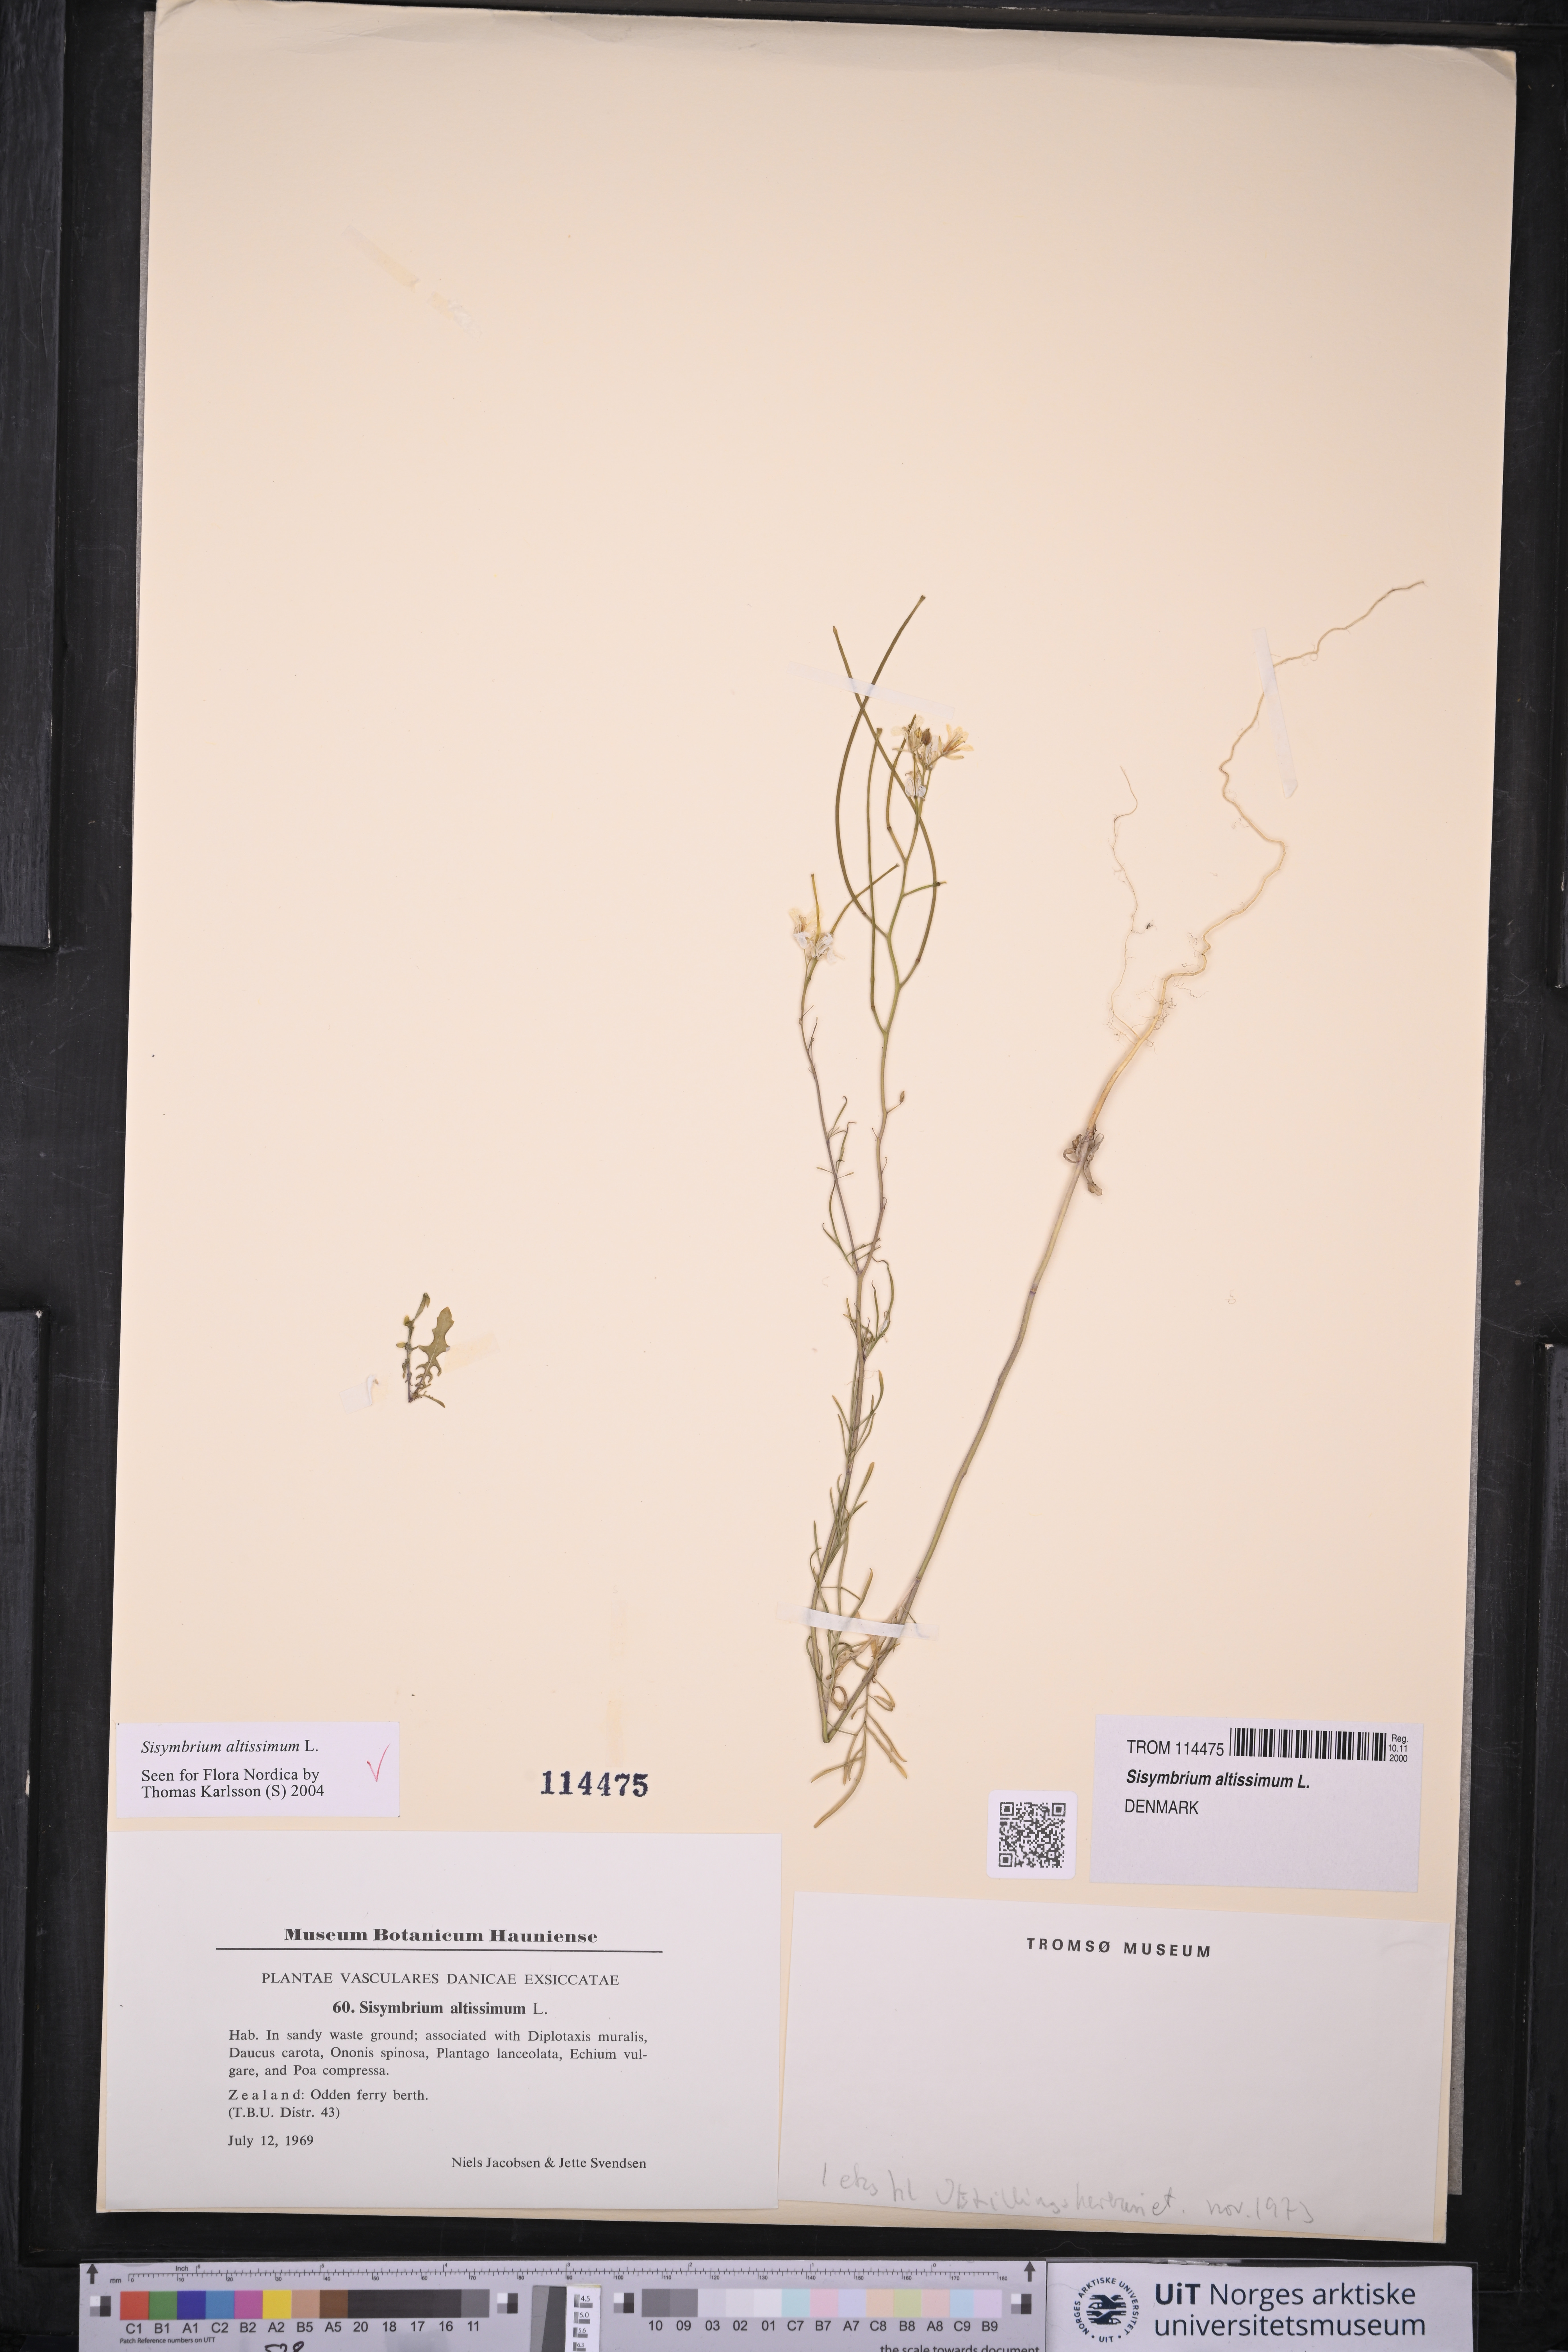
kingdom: Plantae
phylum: Tracheophyta
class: Magnoliopsida
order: Brassicales
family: Brassicaceae
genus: Sisymbrium
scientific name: Sisymbrium altissimum
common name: Tall rocket
